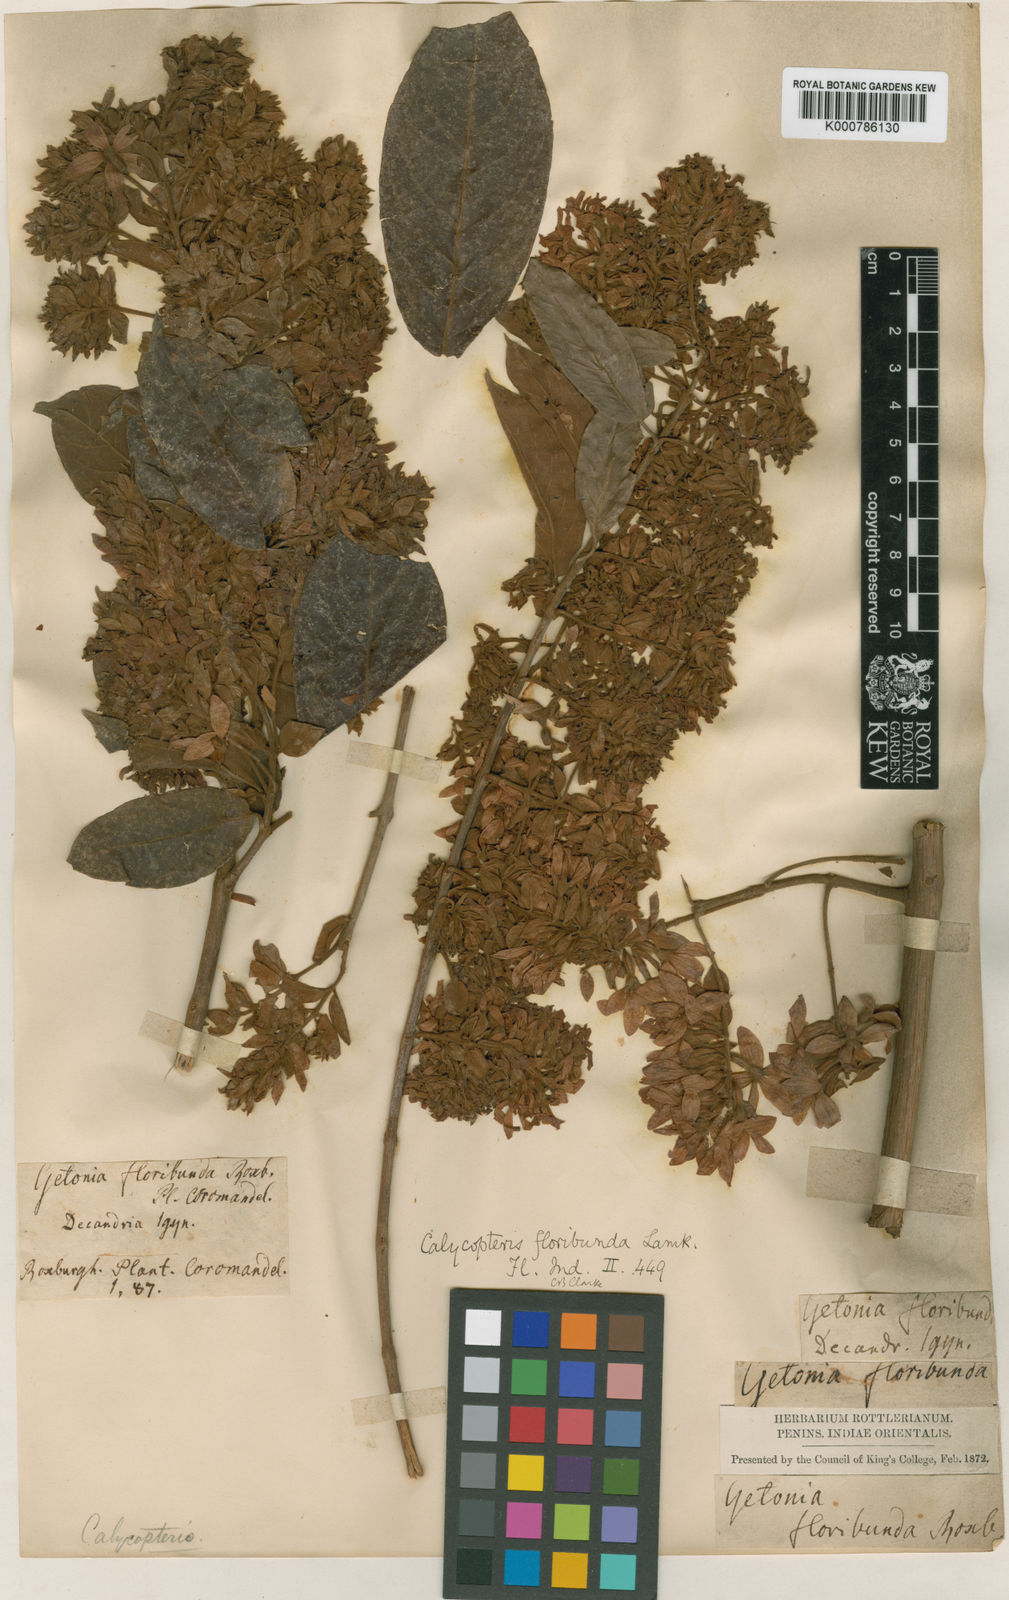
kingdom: Plantae
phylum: Tracheophyta
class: Magnoliopsida
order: Myrtales
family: Combretaceae
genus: Getonia
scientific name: Getonia floribunda
